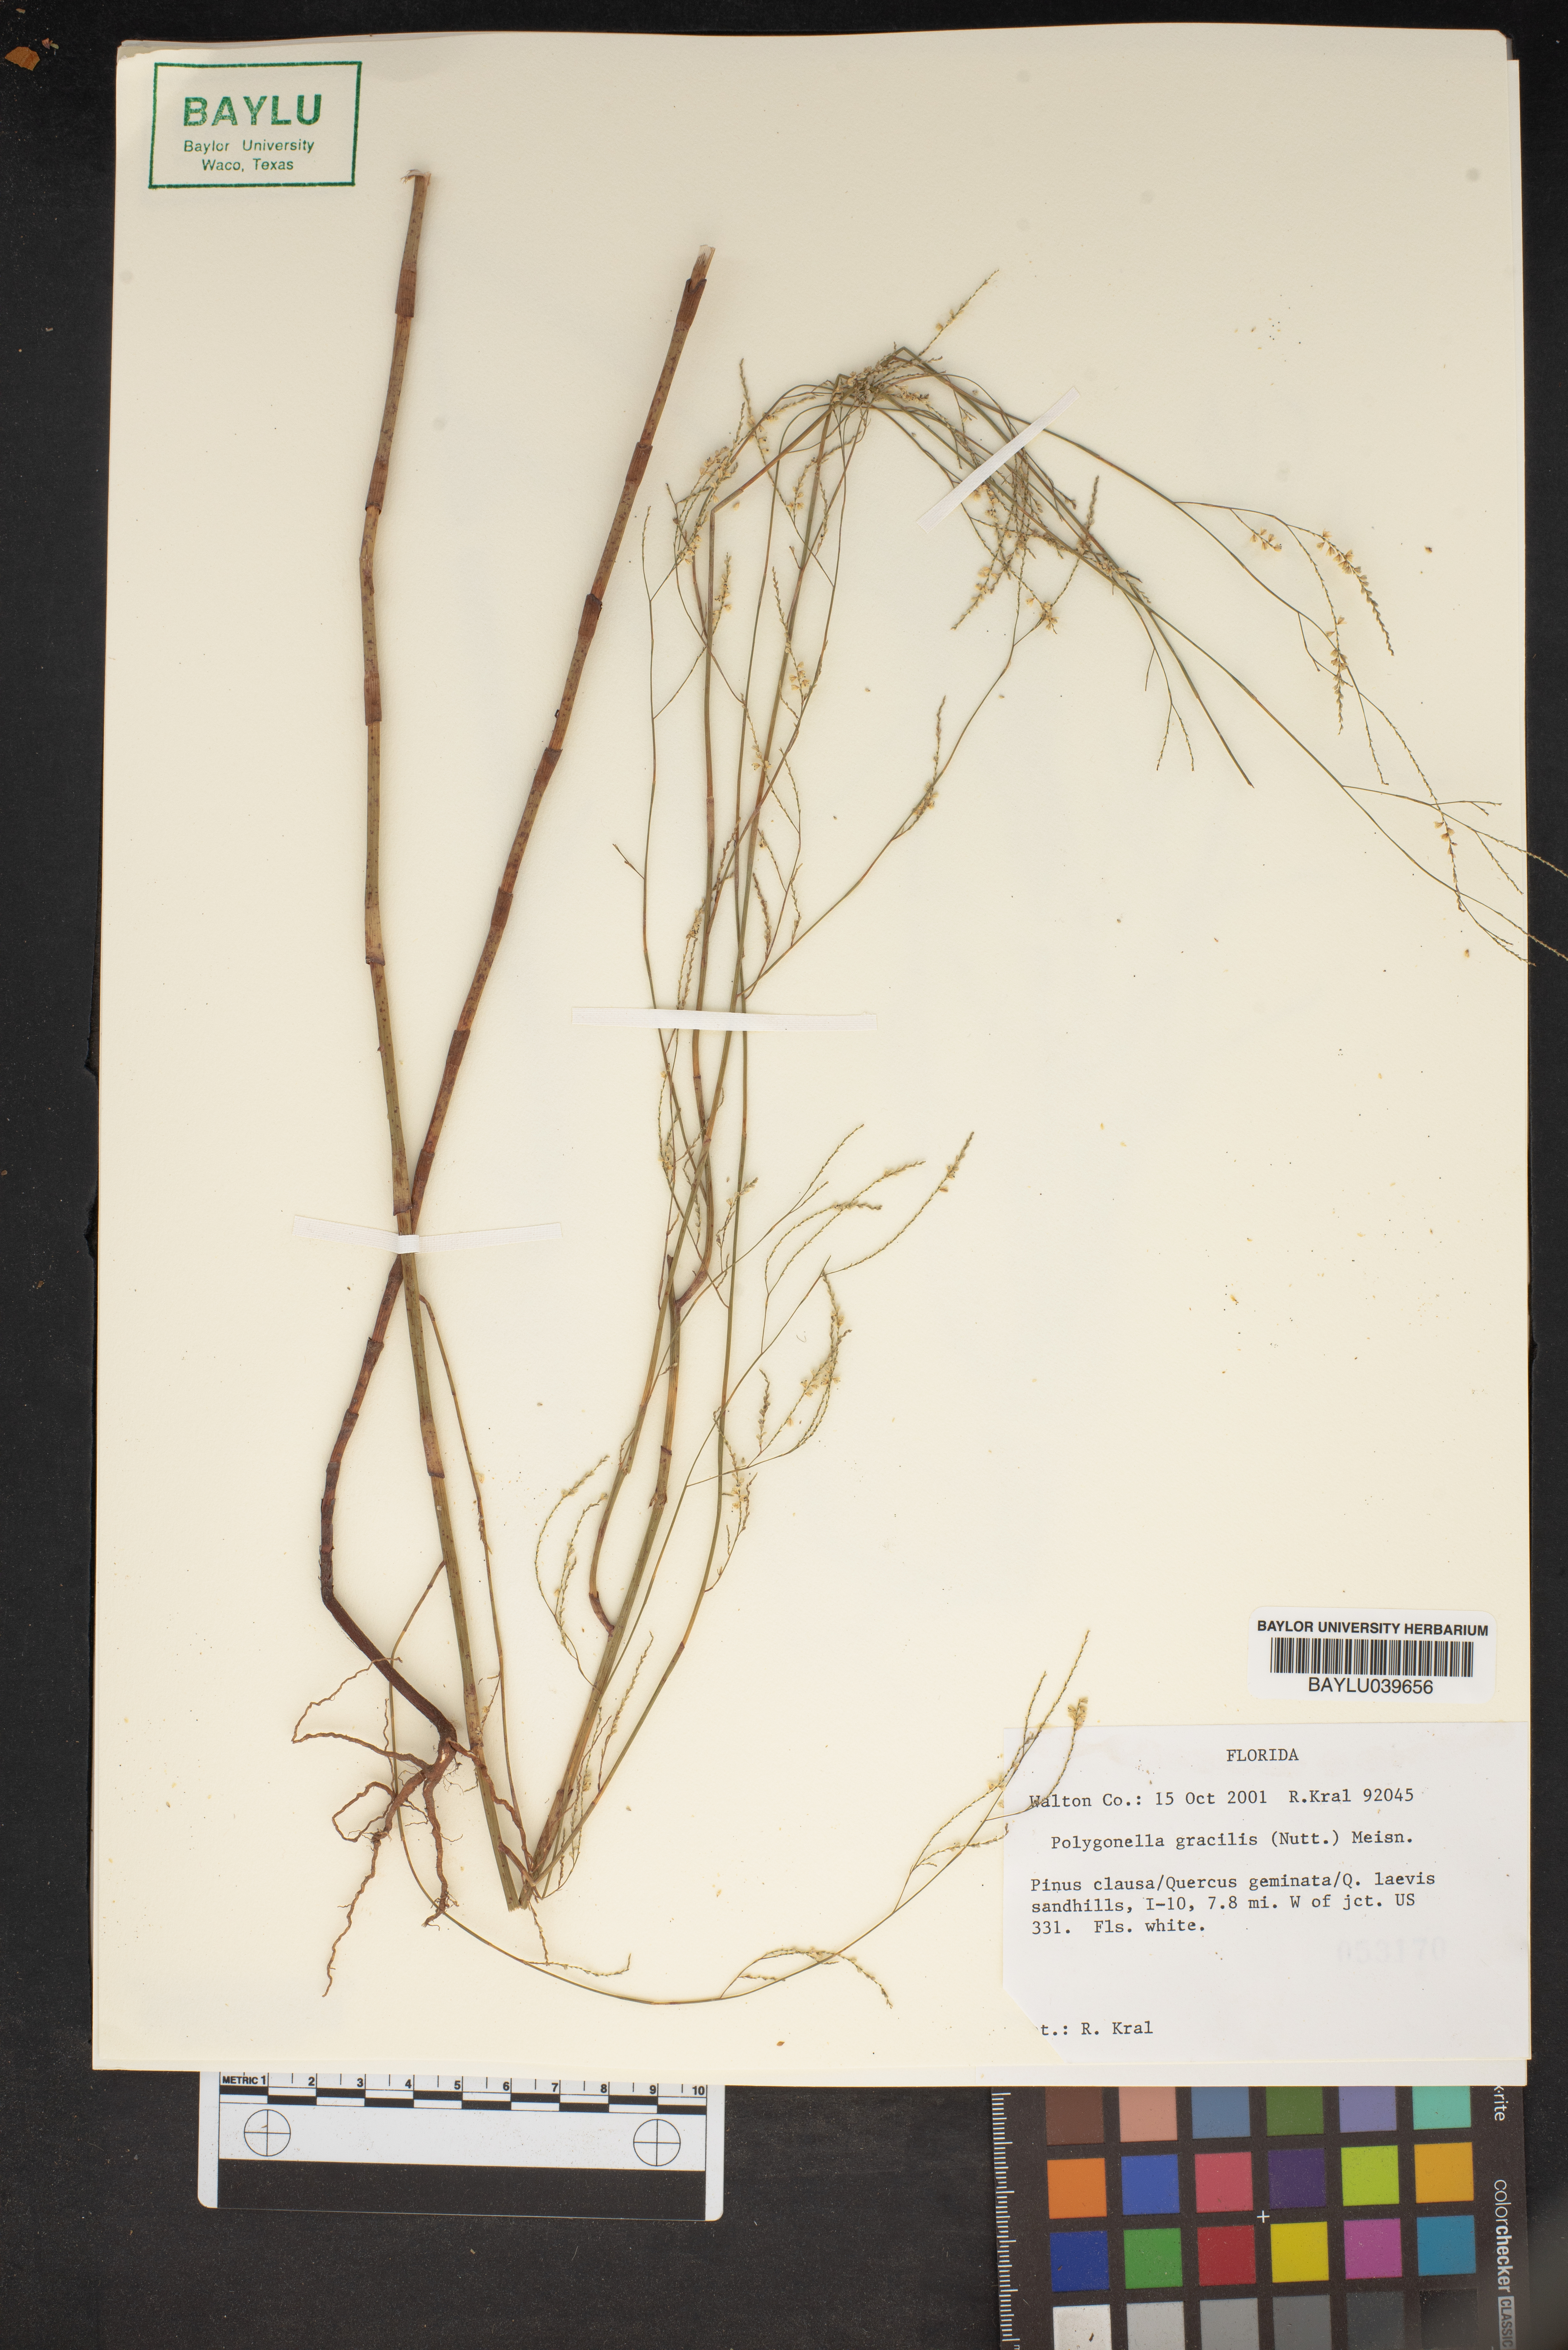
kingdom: Plantae
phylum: Tracheophyta
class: Magnoliopsida
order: Caryophyllales
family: Polygonaceae
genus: Polygonella
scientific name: Polygonella gracilis
